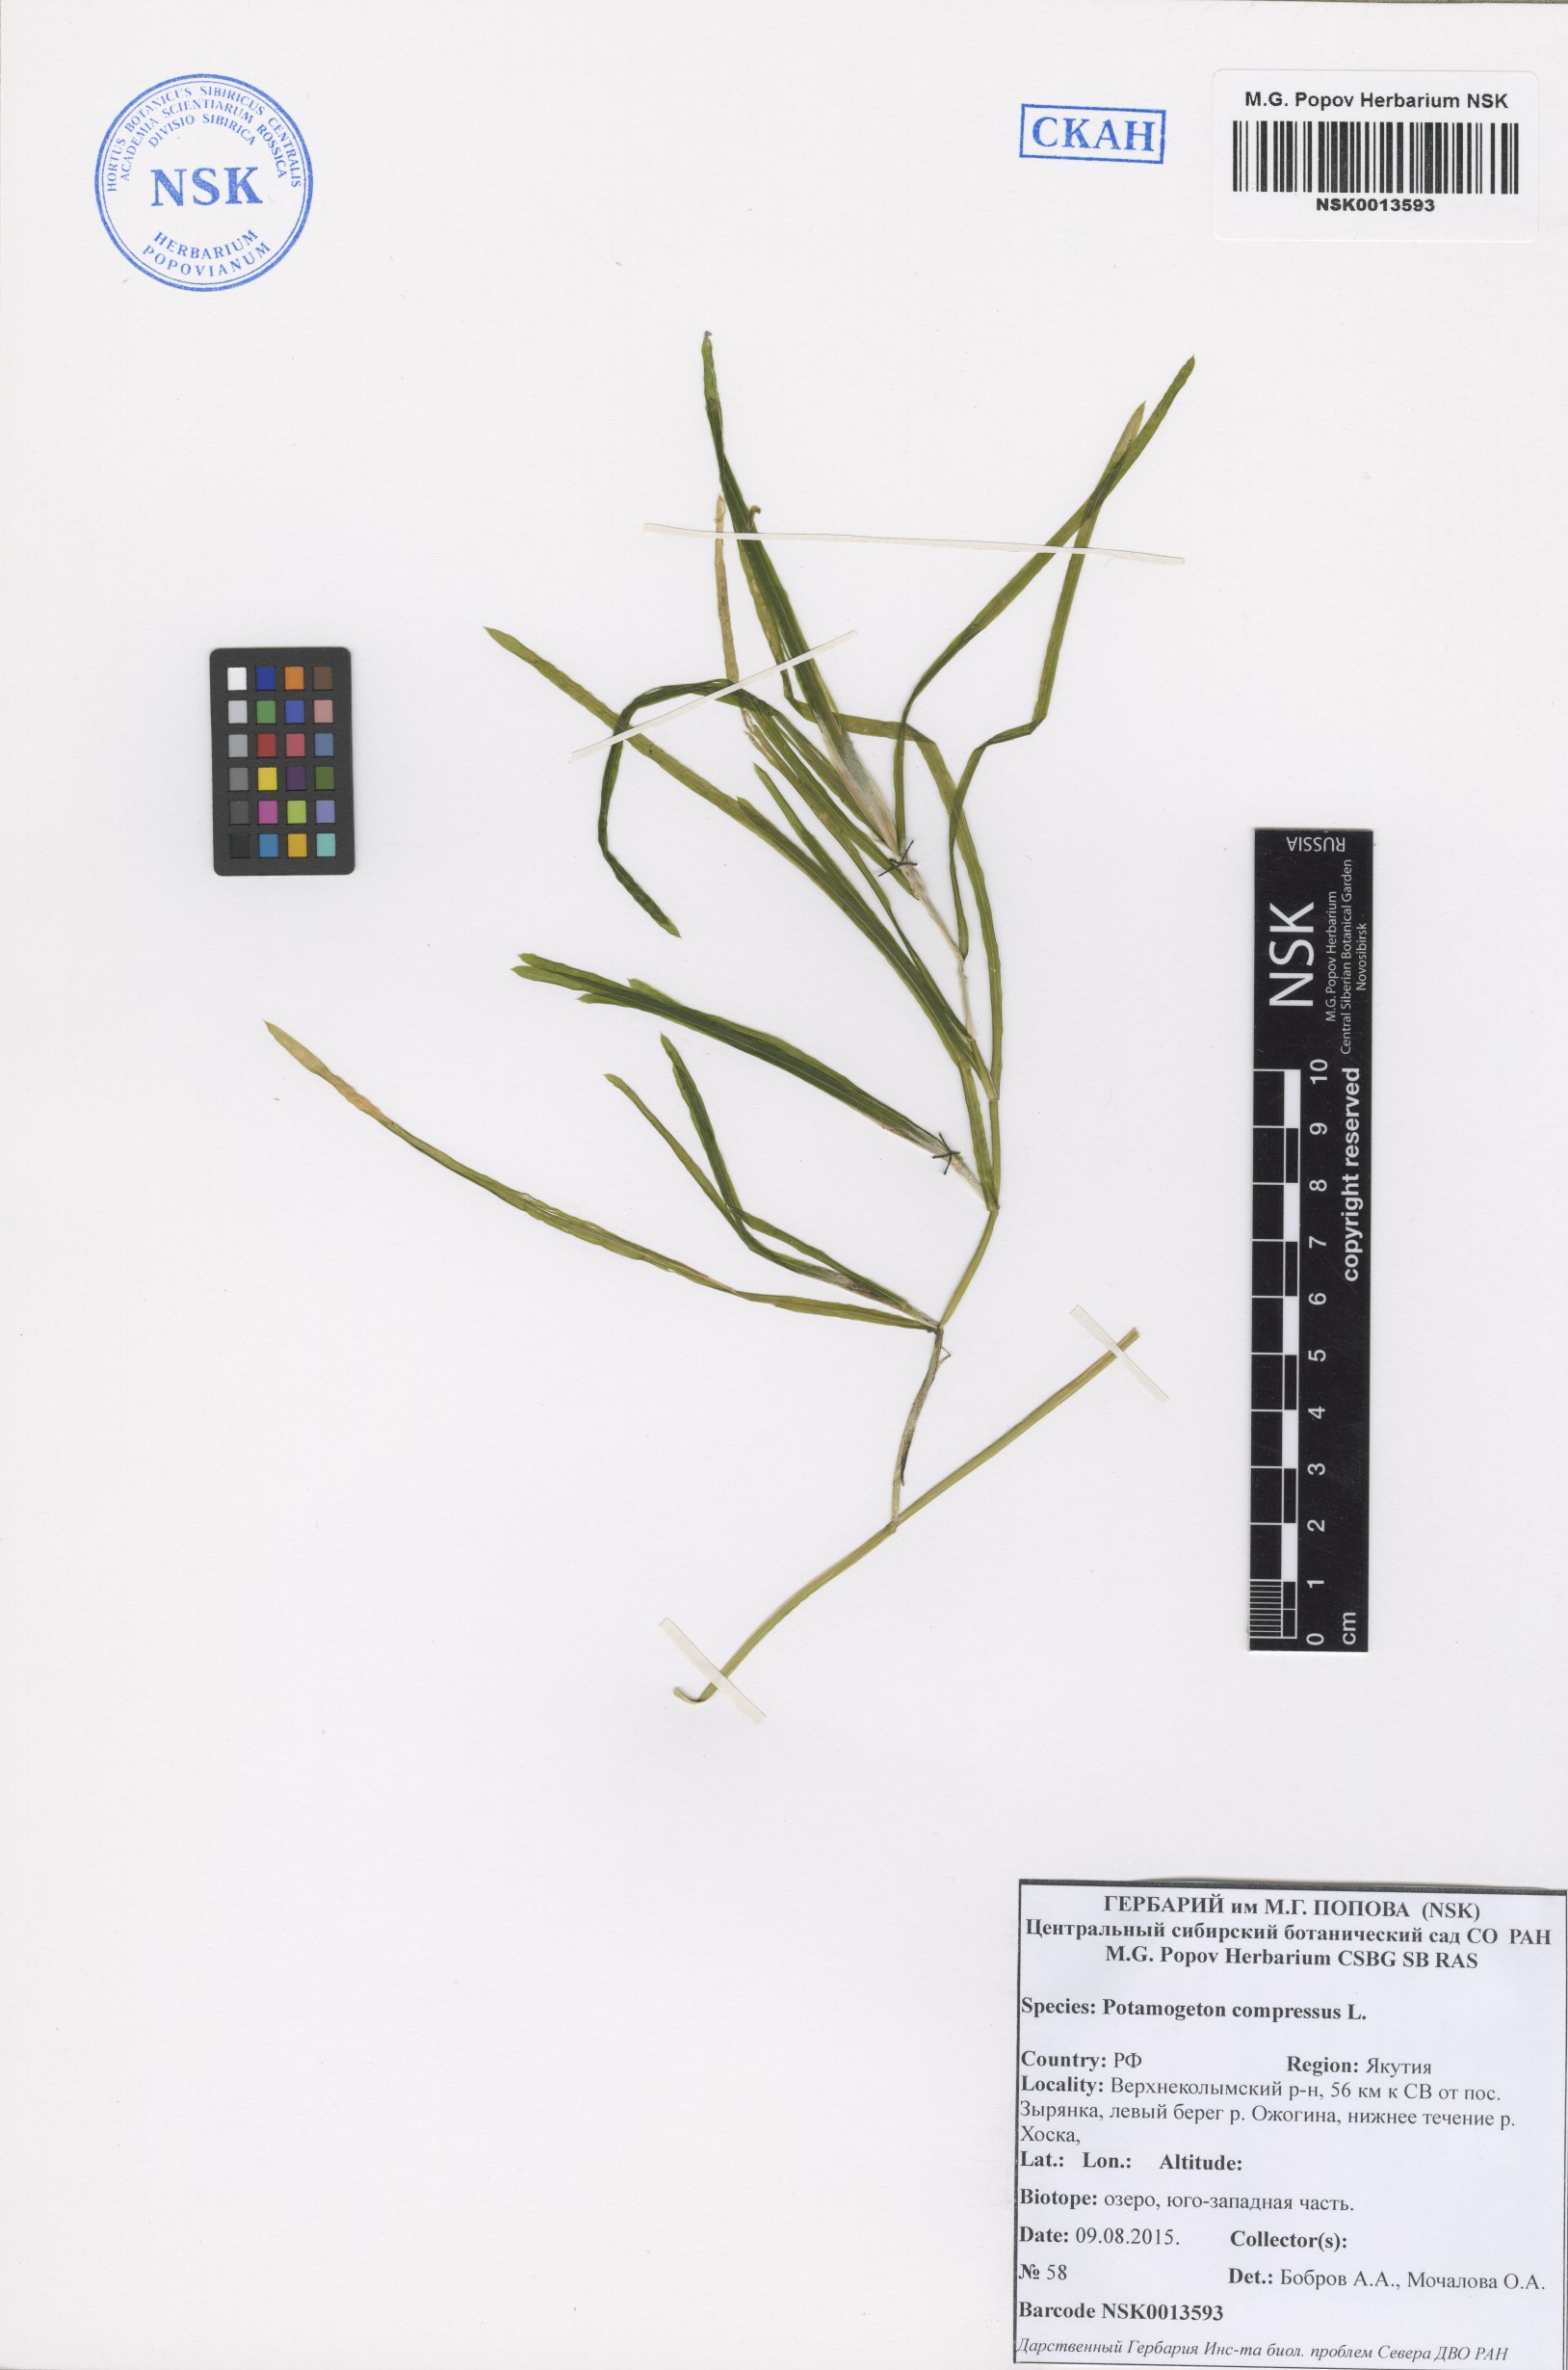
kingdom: Plantae
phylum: Tracheophyta
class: Liliopsida
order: Alismatales
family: Potamogetonaceae
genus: Potamogeton
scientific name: Potamogeton compressus
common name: Grass-wrack pondweed
